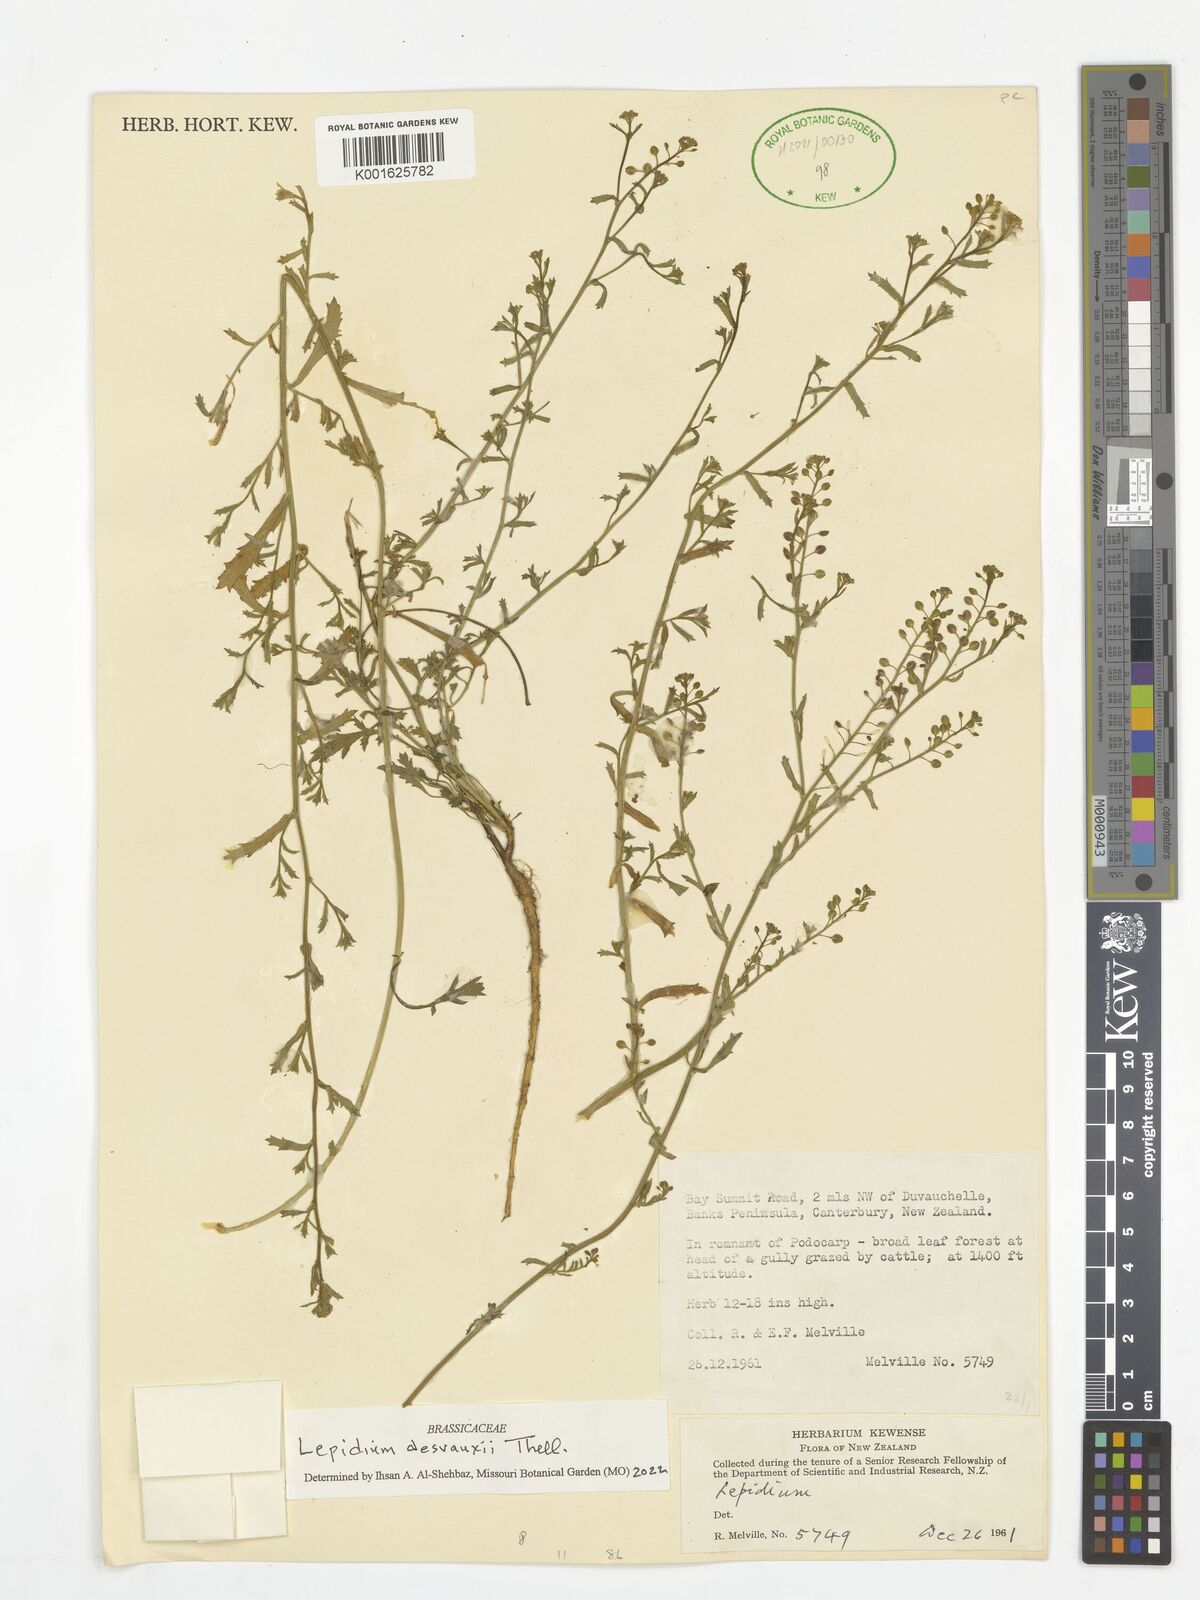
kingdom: Plantae
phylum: Tracheophyta
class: Magnoliopsida
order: Brassicales
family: Brassicaceae
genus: Lepidium
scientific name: Lepidium desvauxii
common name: Bushy pepperwort
